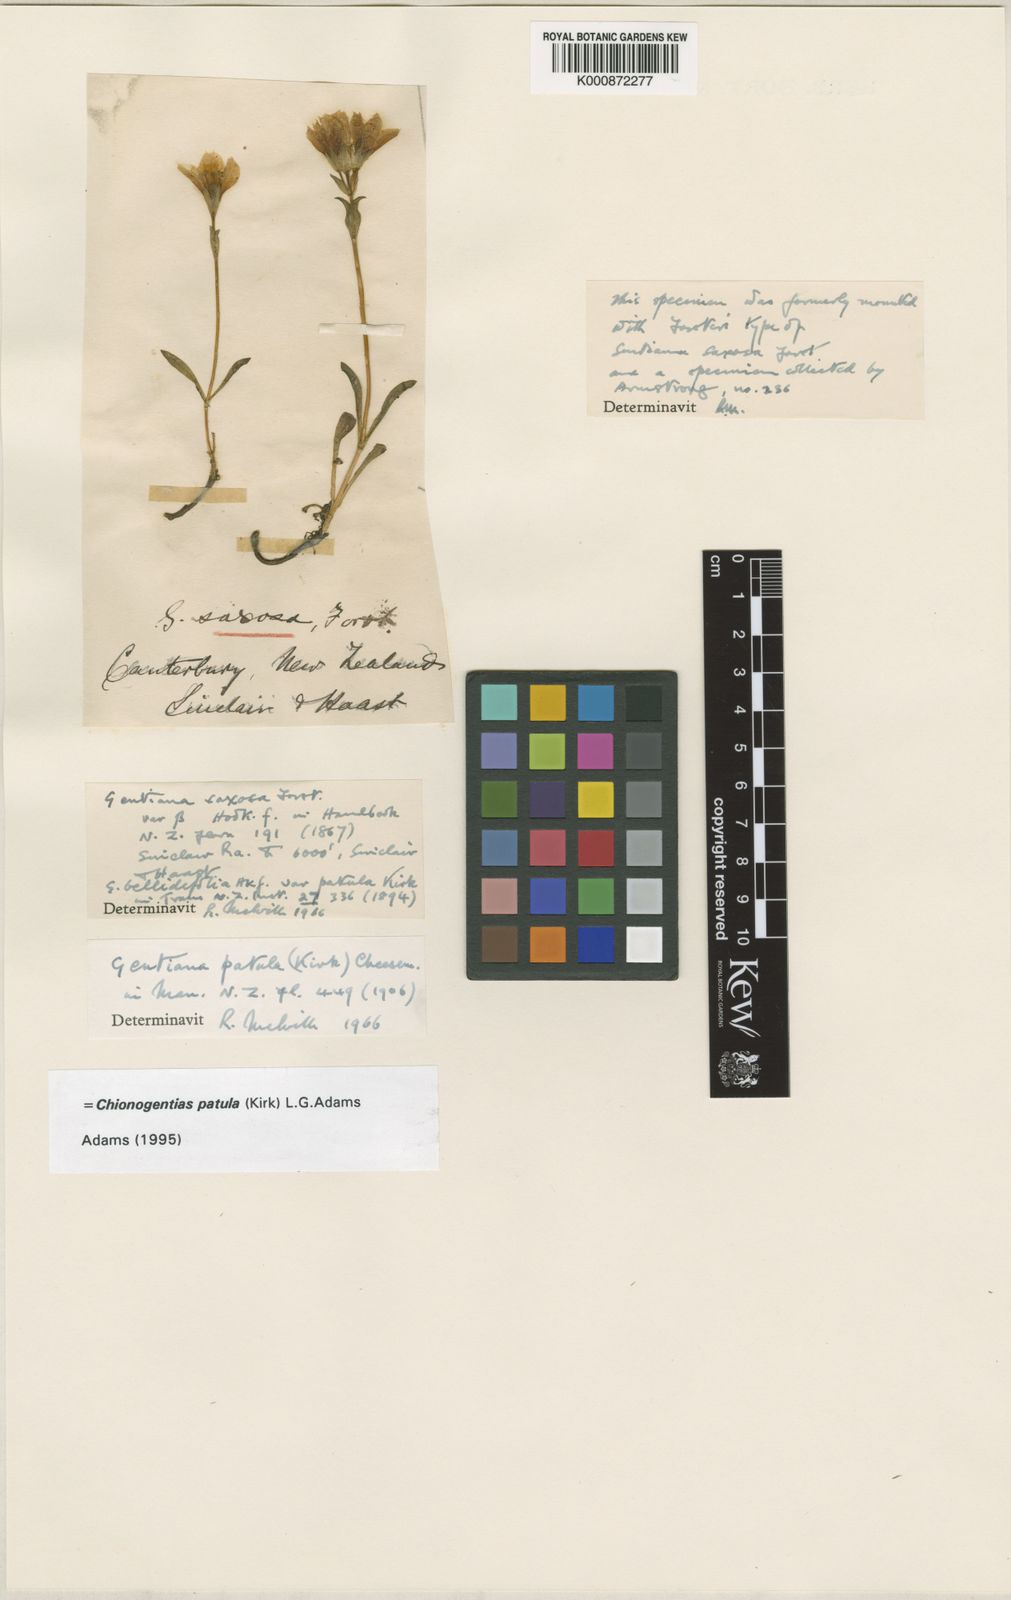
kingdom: Plantae
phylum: Tracheophyta
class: Magnoliopsida
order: Gentianales
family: Gentianaceae
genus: Gentianella
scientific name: Gentianella patula
